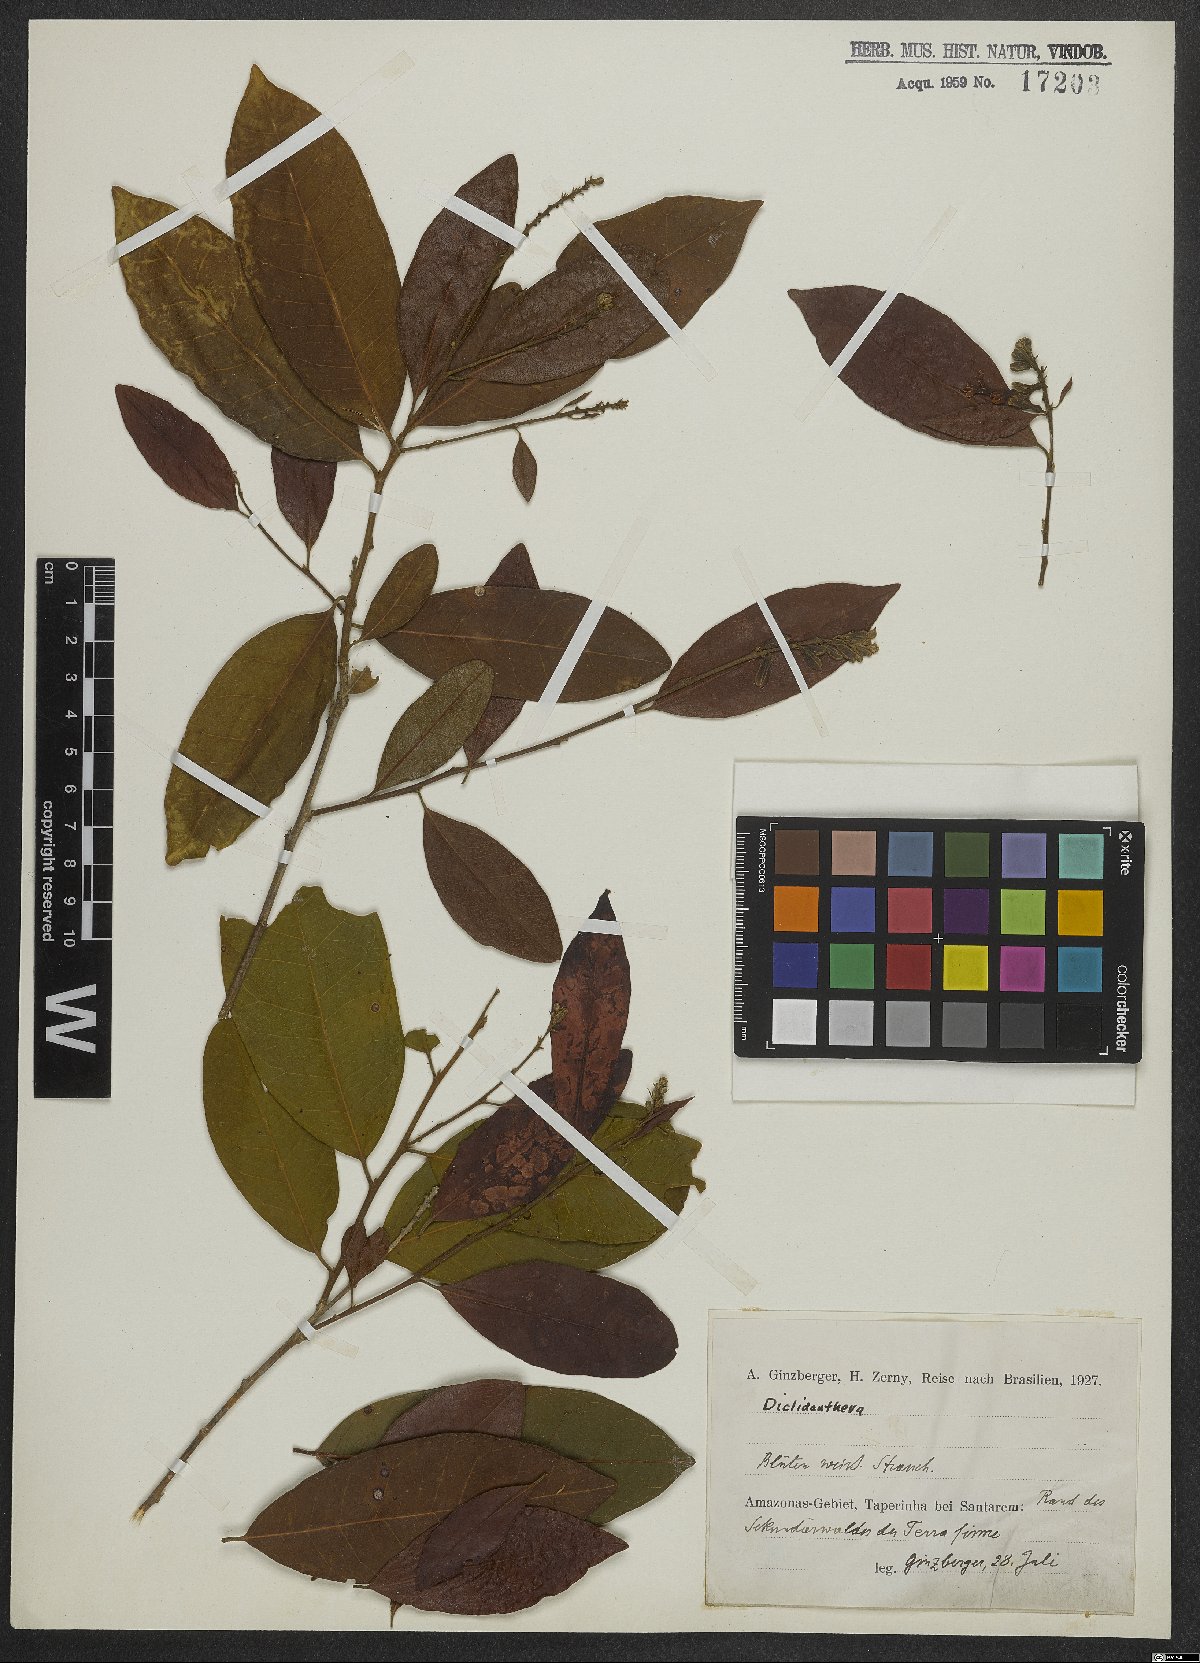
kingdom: Plantae
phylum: Tracheophyta
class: Magnoliopsida
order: Fabales
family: Polygalaceae
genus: Diclidanthera
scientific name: Diclidanthera
